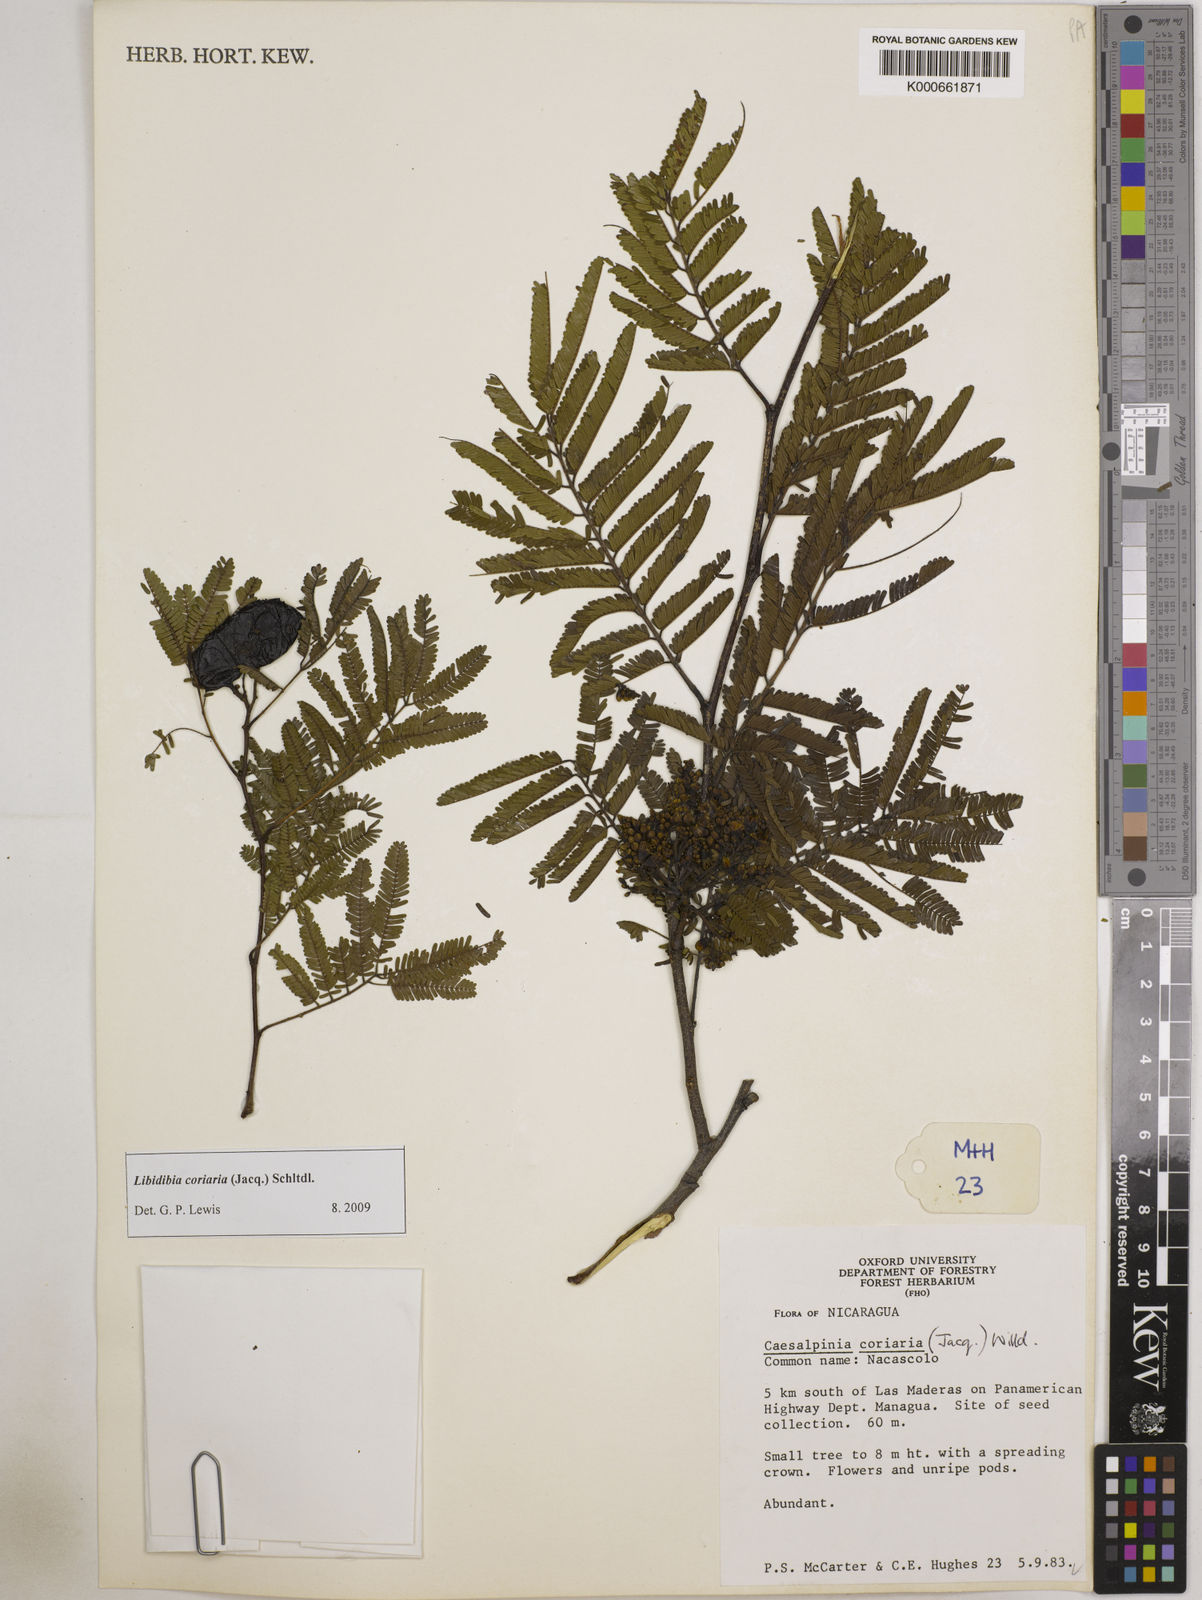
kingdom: Plantae
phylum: Tracheophyta
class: Magnoliopsida
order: Fabales
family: Fabaceae
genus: Libidibia
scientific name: Libidibia coriaria
